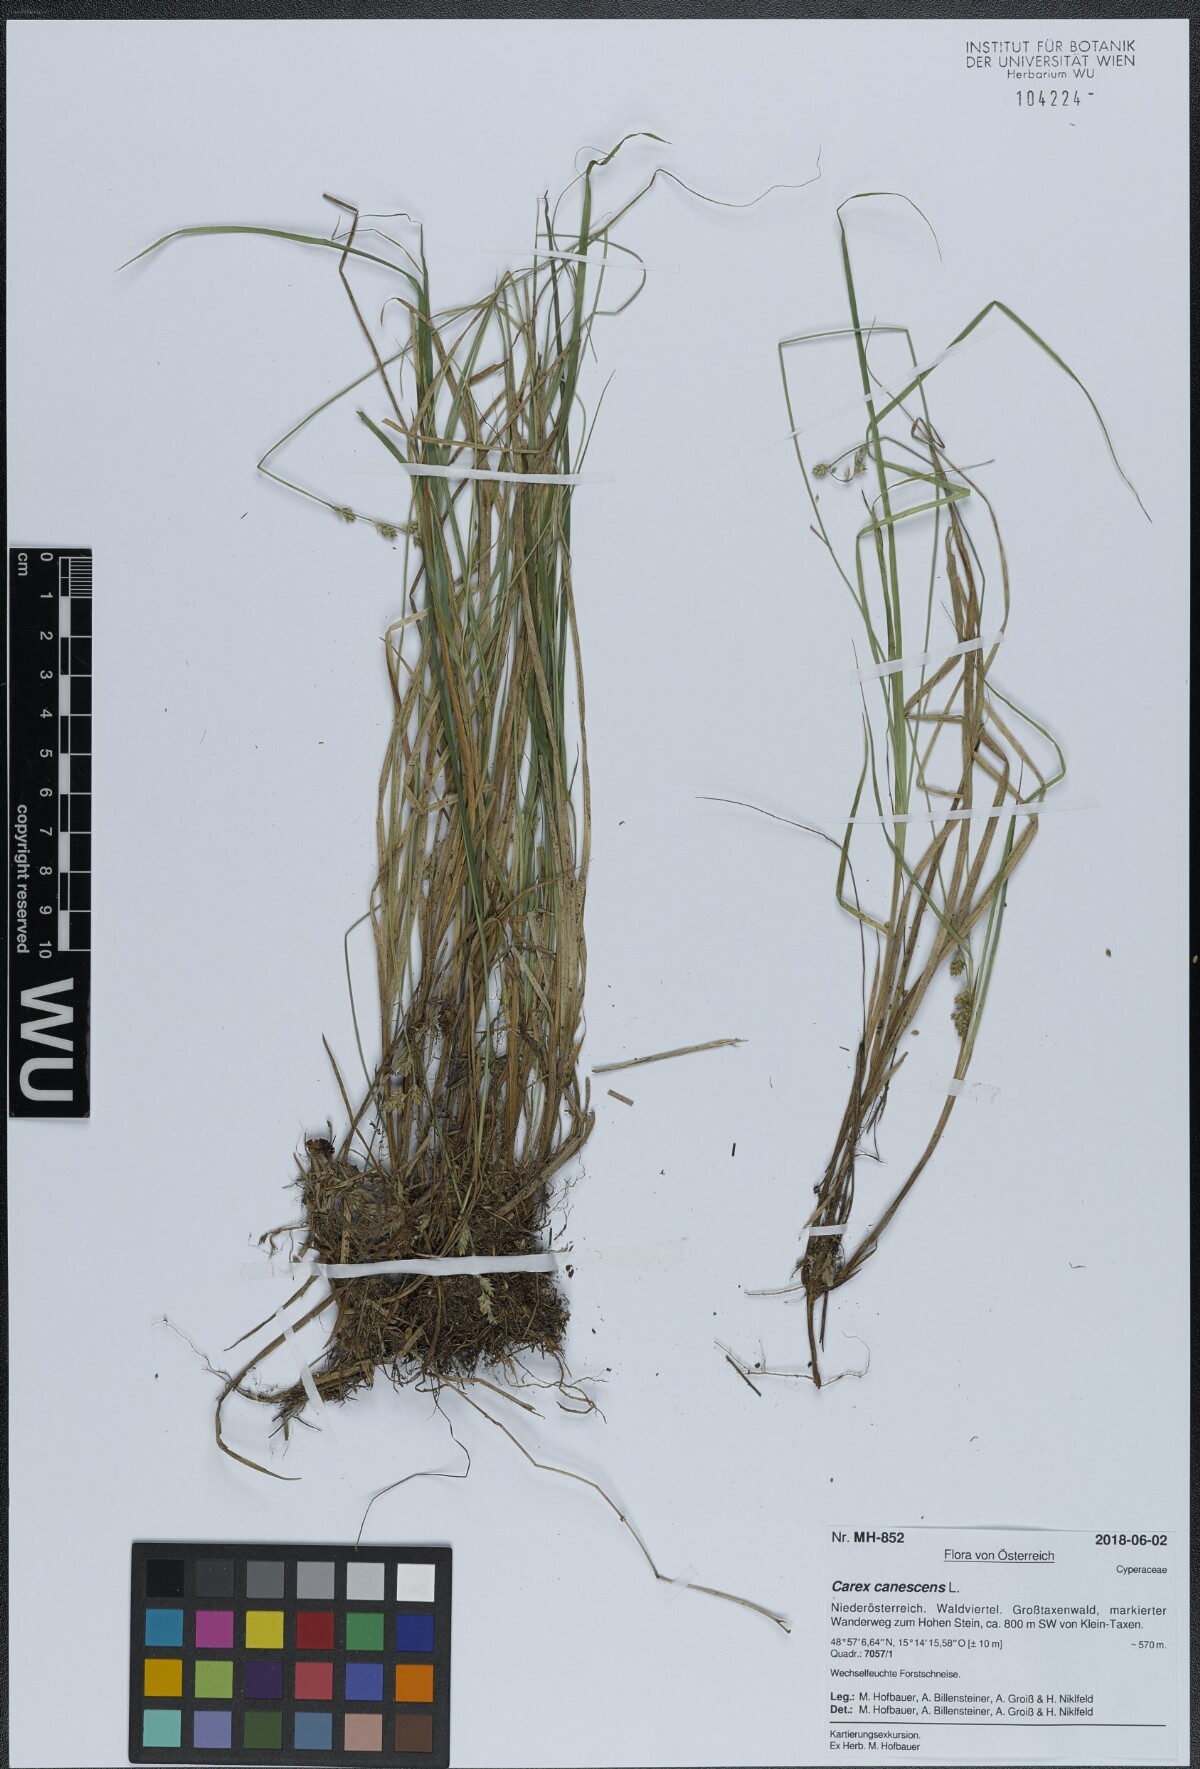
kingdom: Plantae
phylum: Tracheophyta
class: Liliopsida
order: Poales
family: Cyperaceae
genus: Carex
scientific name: Carex canescens
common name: White sedge
